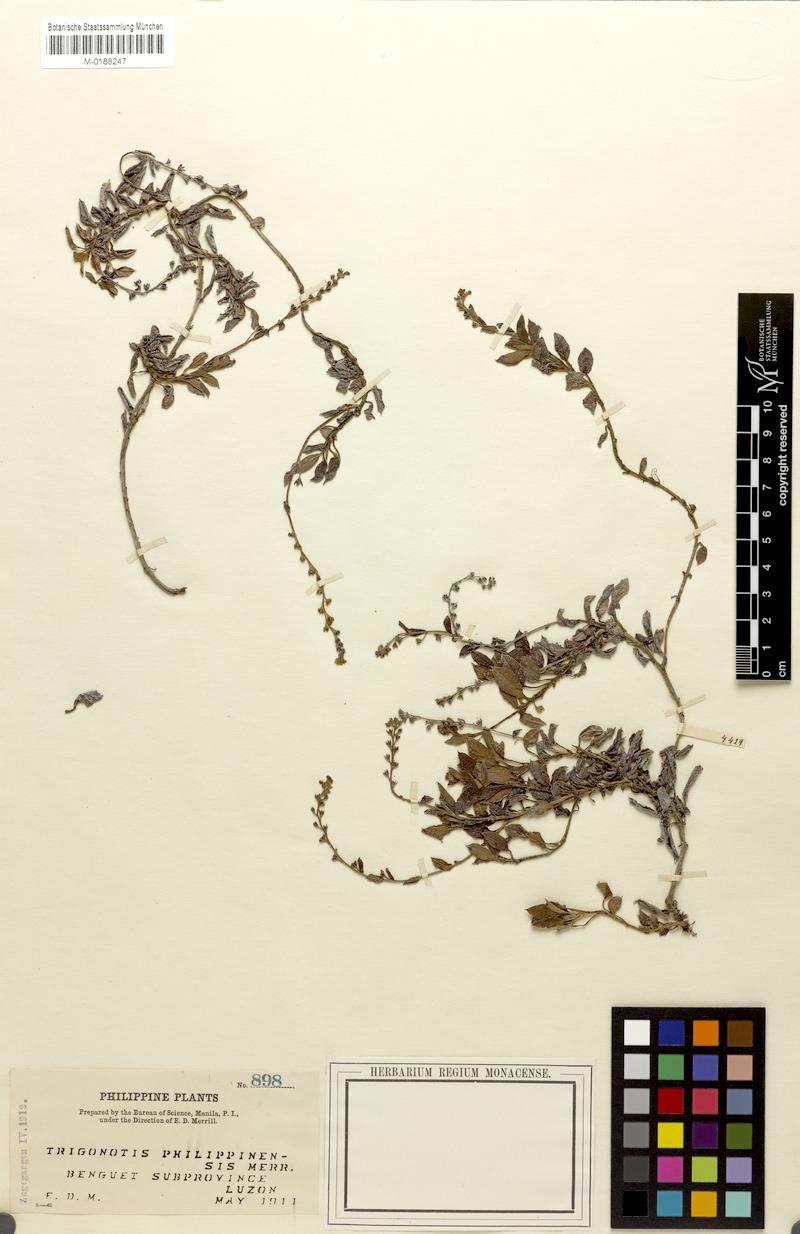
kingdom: Plantae
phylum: Tracheophyta
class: Magnoliopsida
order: Boraginales
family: Boraginaceae
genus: Trigonotis
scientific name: Trigonotis philippinensis
